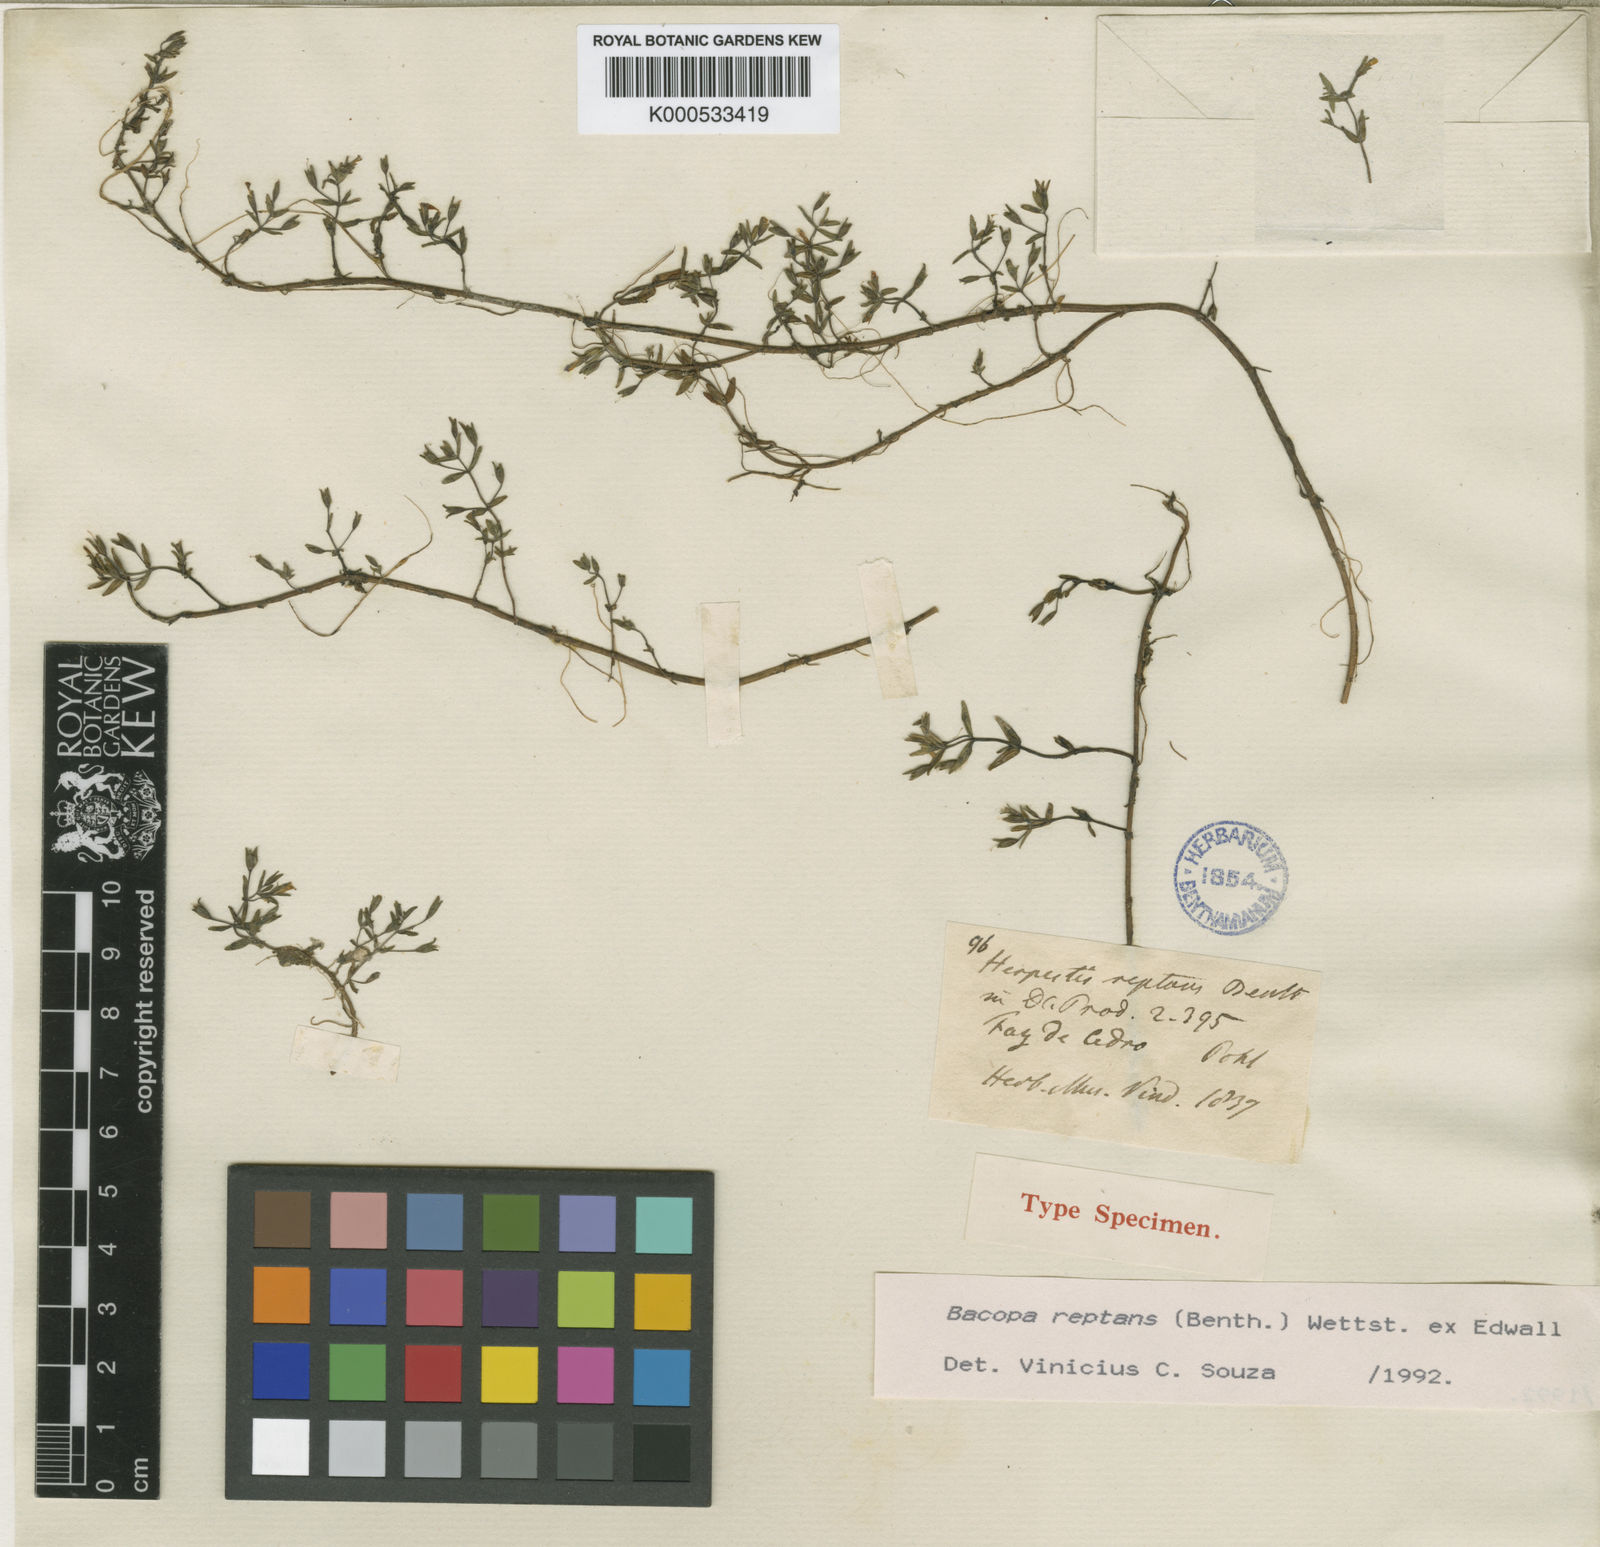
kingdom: Plantae
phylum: Tracheophyta
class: Magnoliopsida
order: Lamiales
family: Plantaginaceae
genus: Bacopa
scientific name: Bacopa
